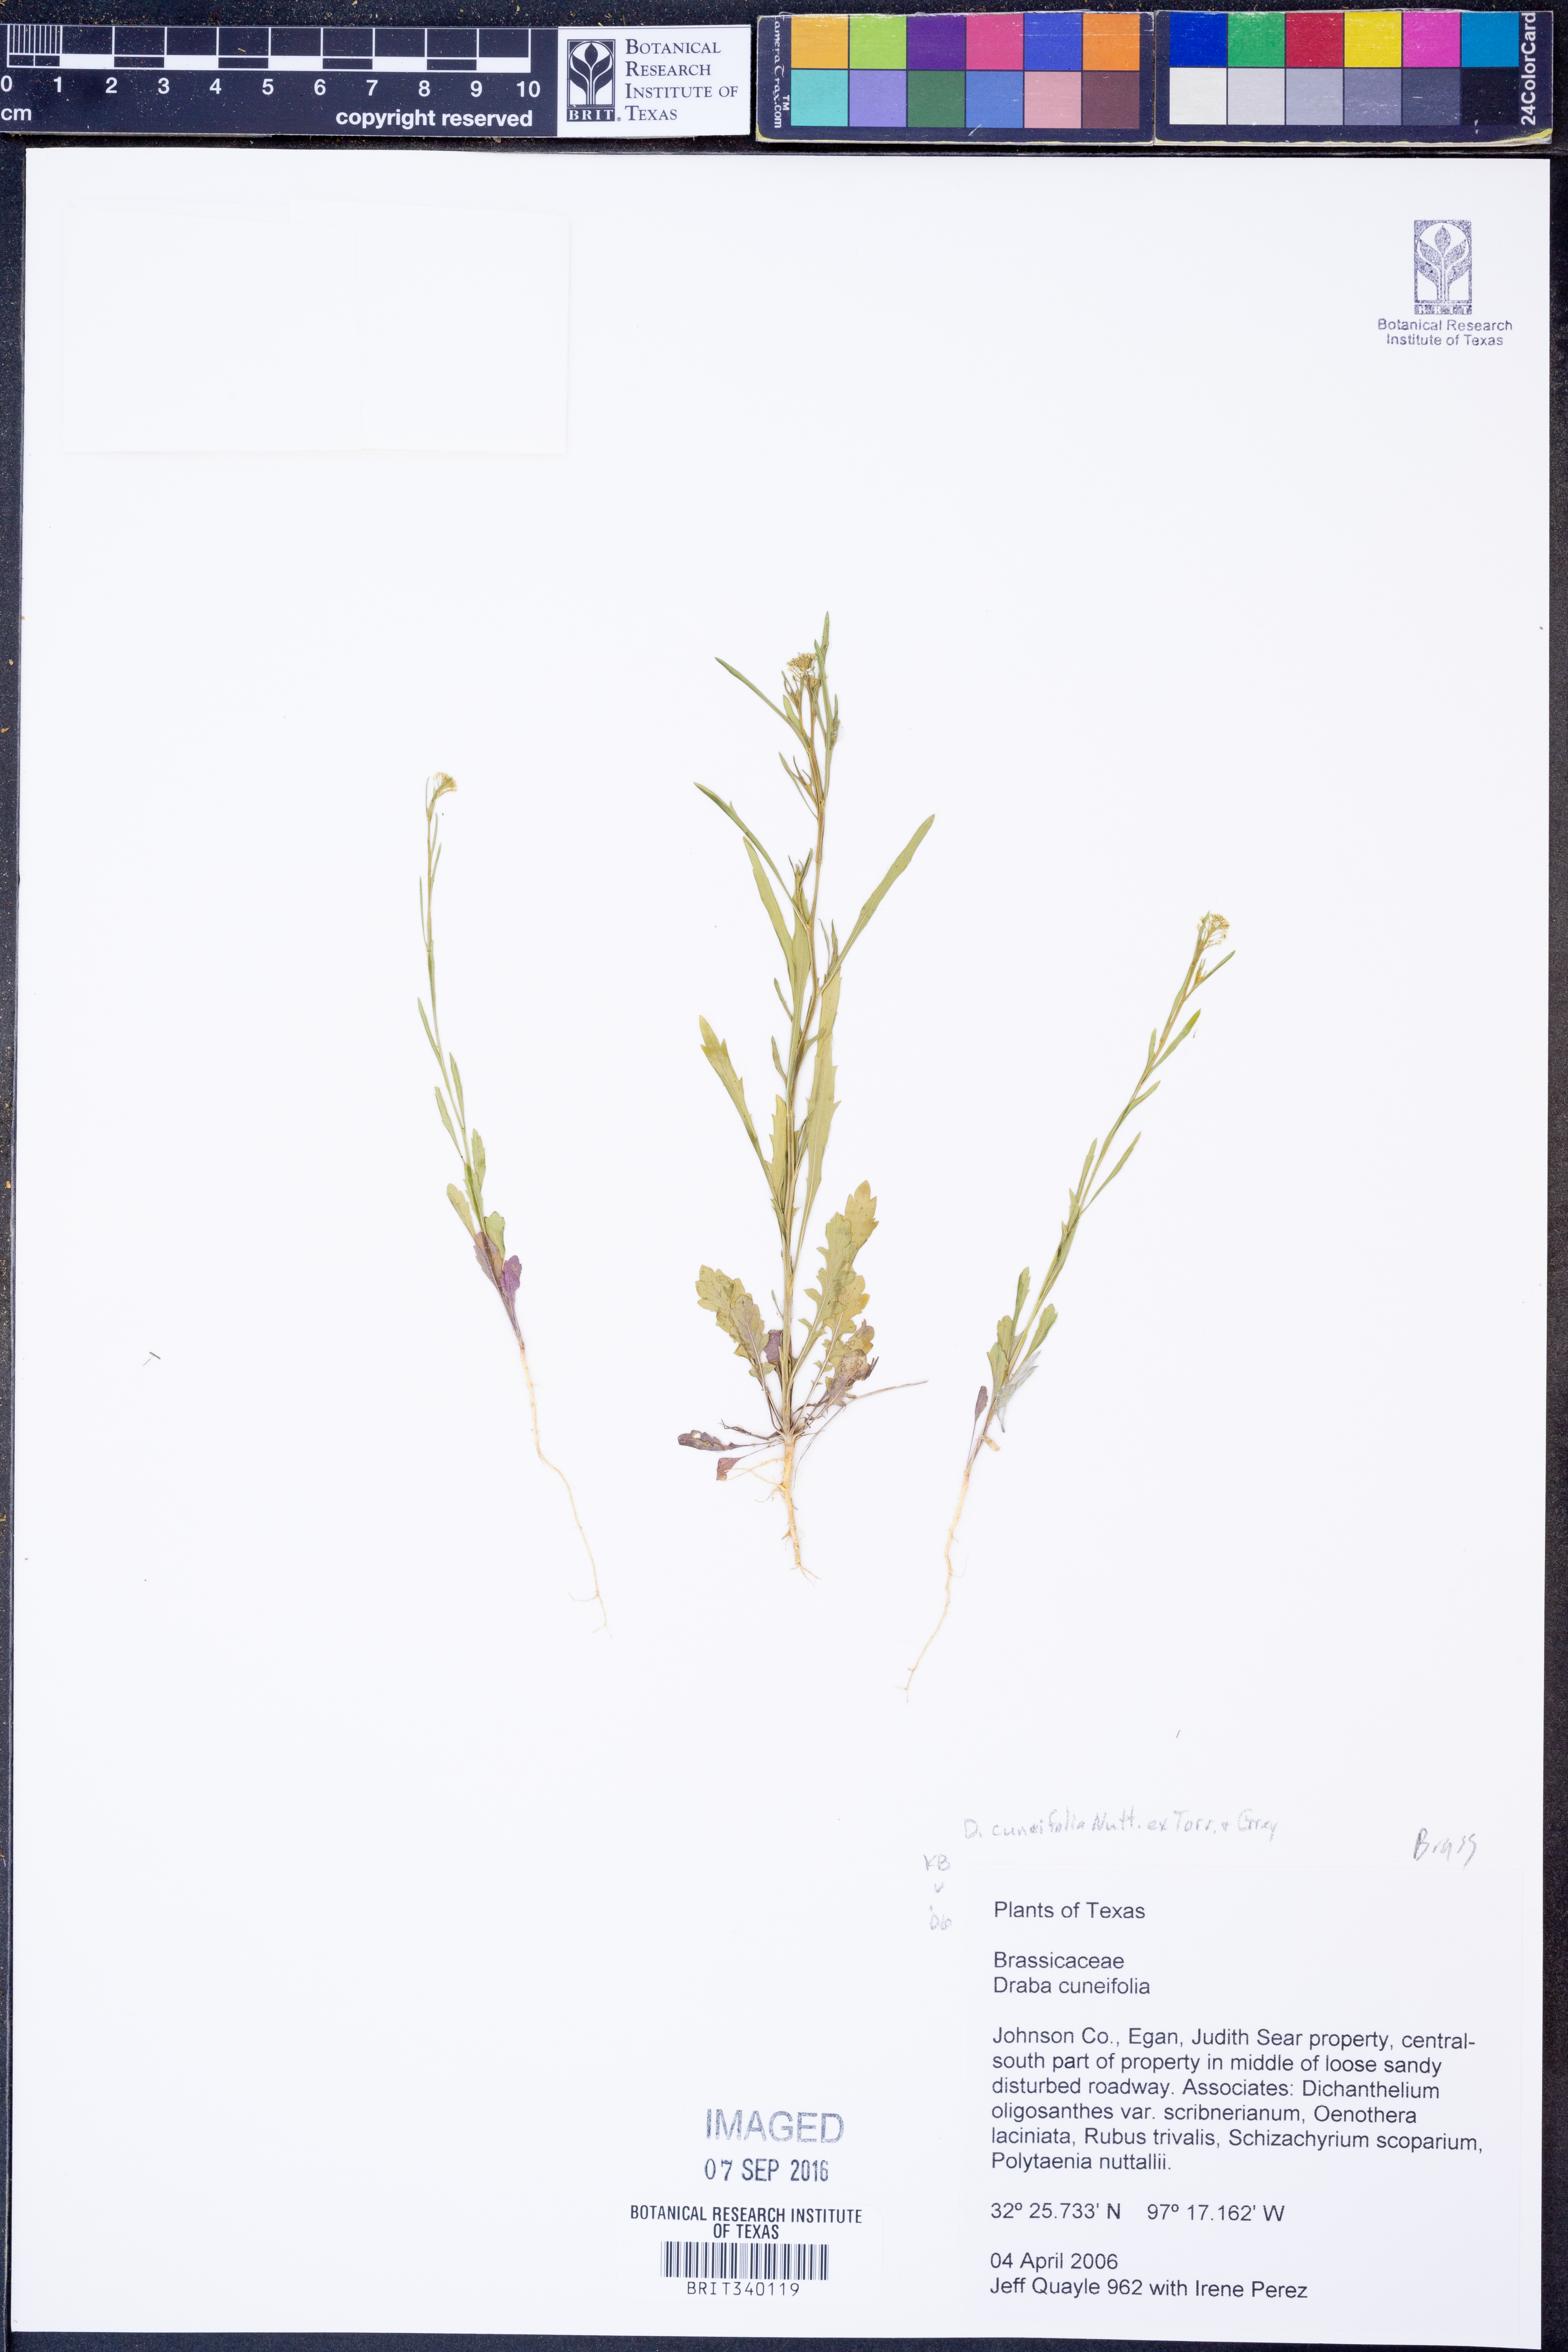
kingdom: Plantae
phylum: Tracheophyta
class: Magnoliopsida
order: Brassicales
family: Brassicaceae
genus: Tomostima
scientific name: Tomostima cuneifolia
